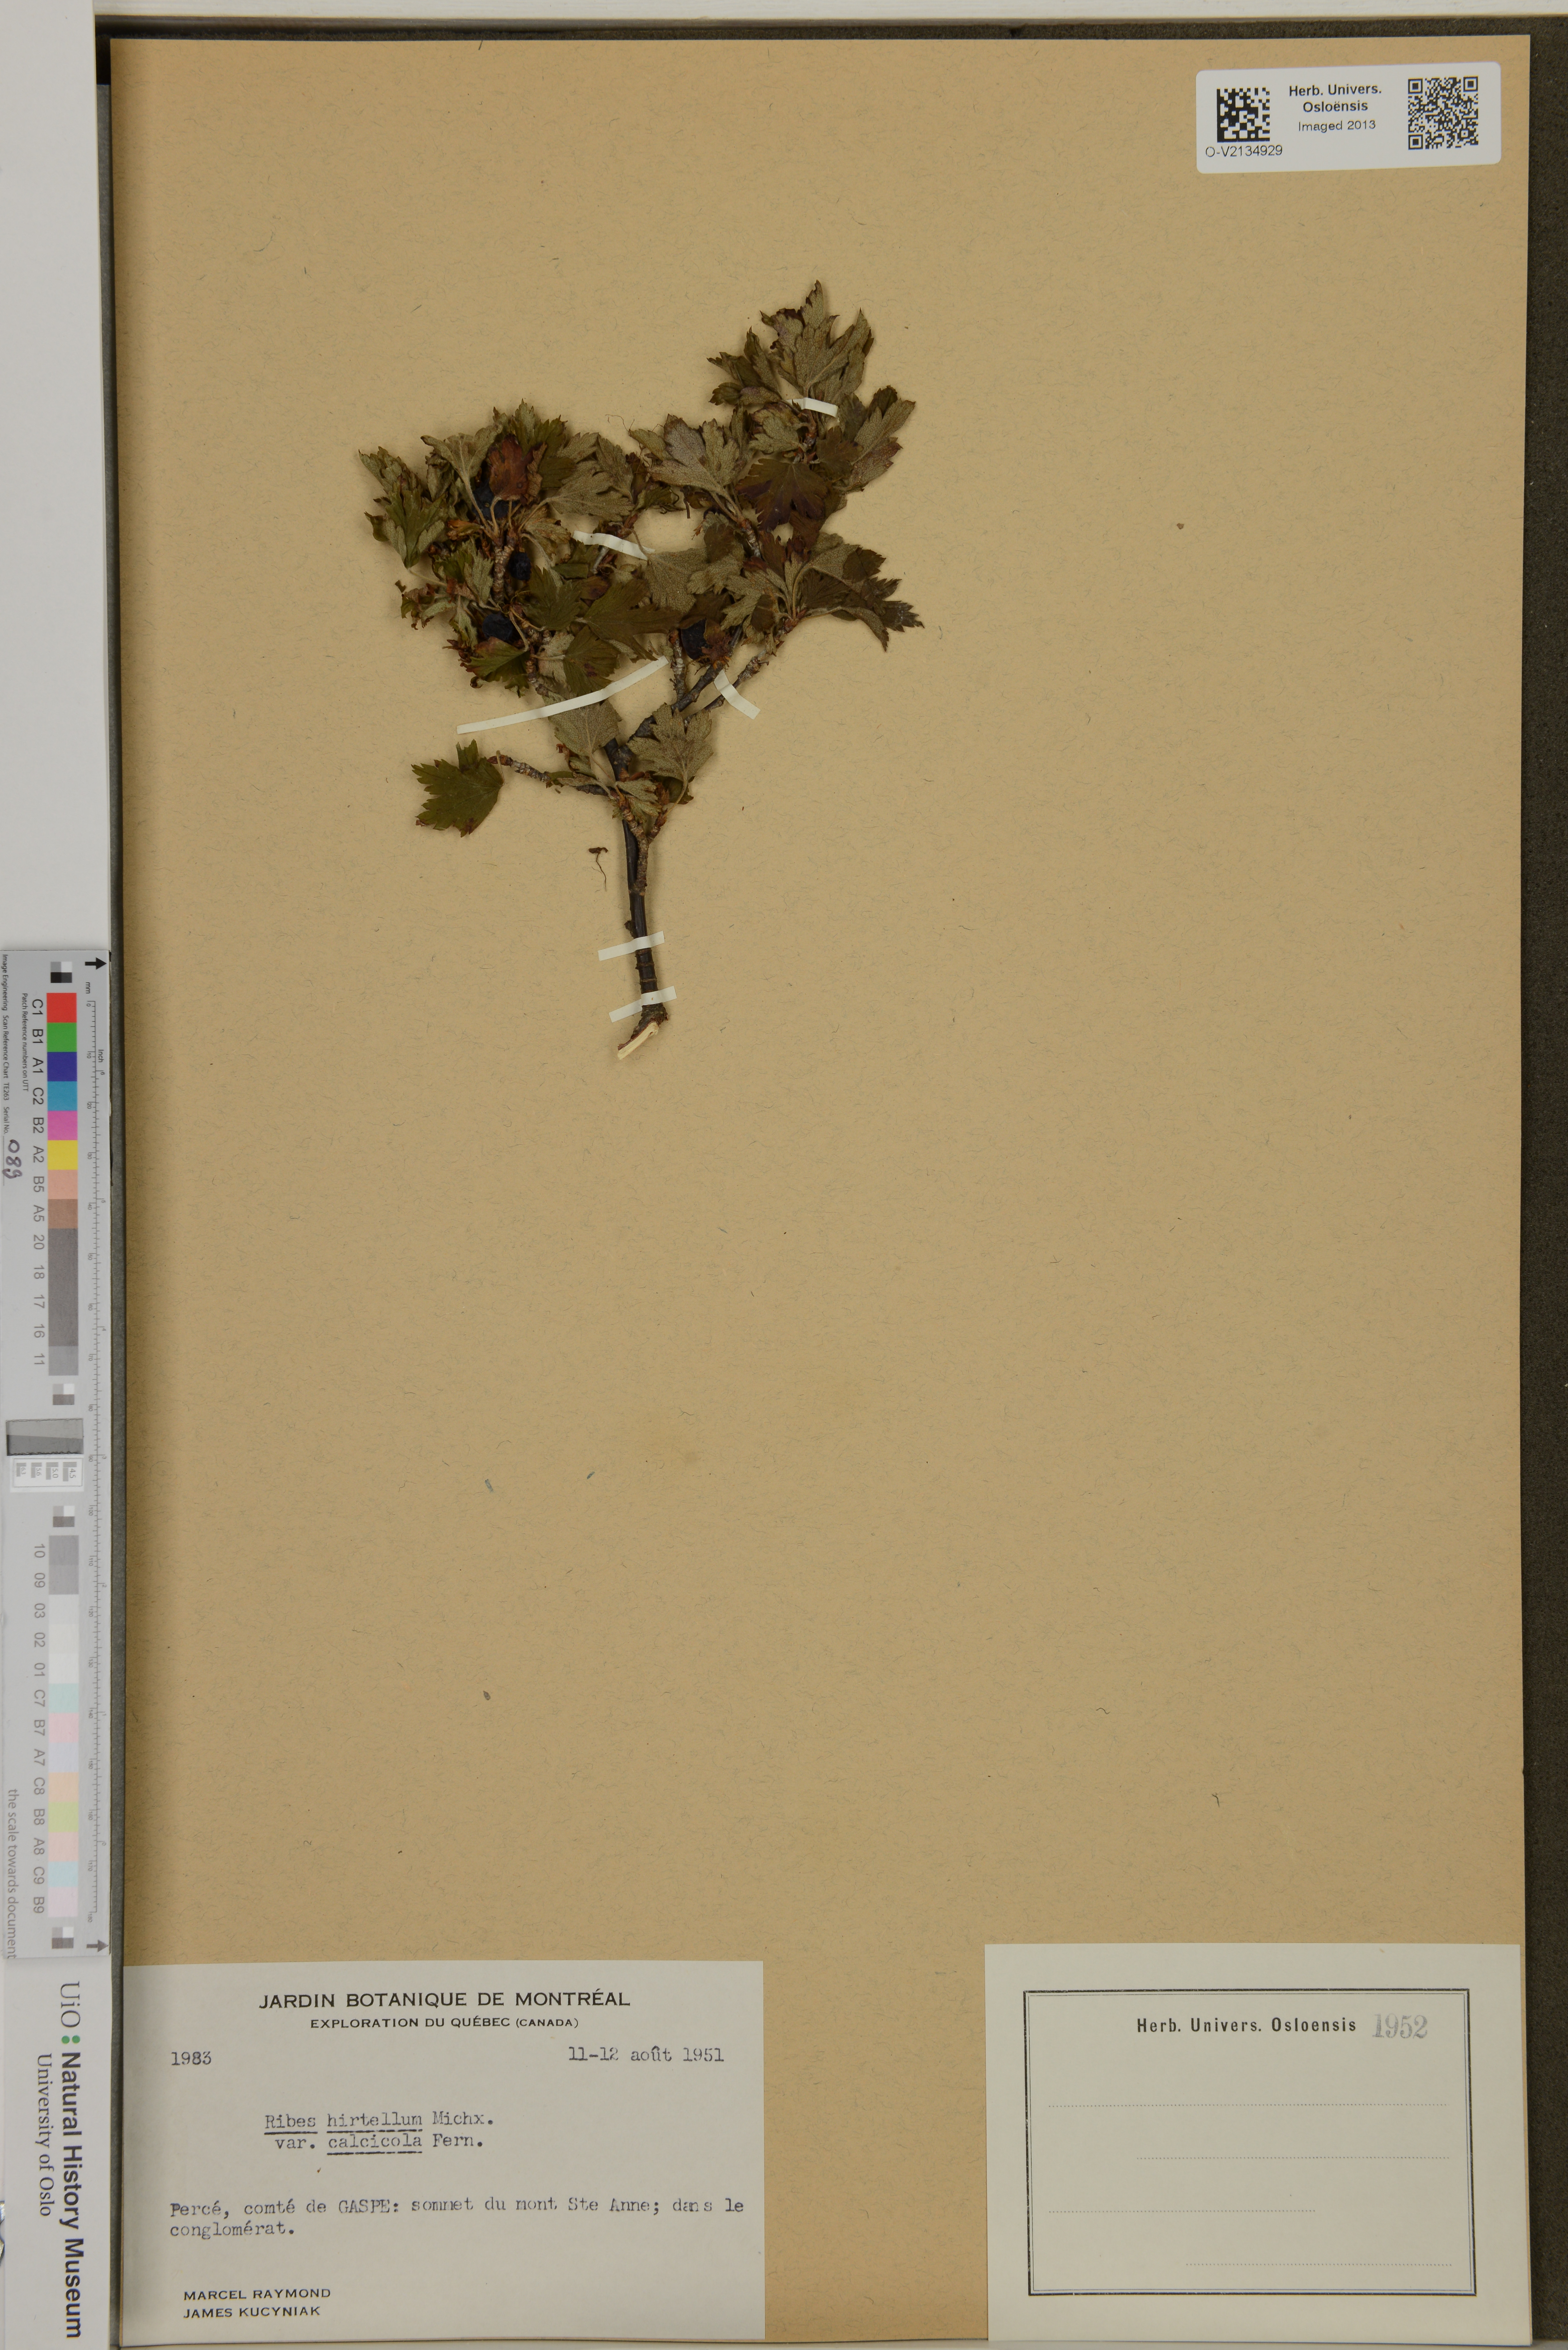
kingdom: Plantae
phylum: Tracheophyta
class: Magnoliopsida
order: Saxifragales
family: Grossulariaceae
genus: Ribes
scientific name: Ribes hirtellum
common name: Hairy gooseberry
